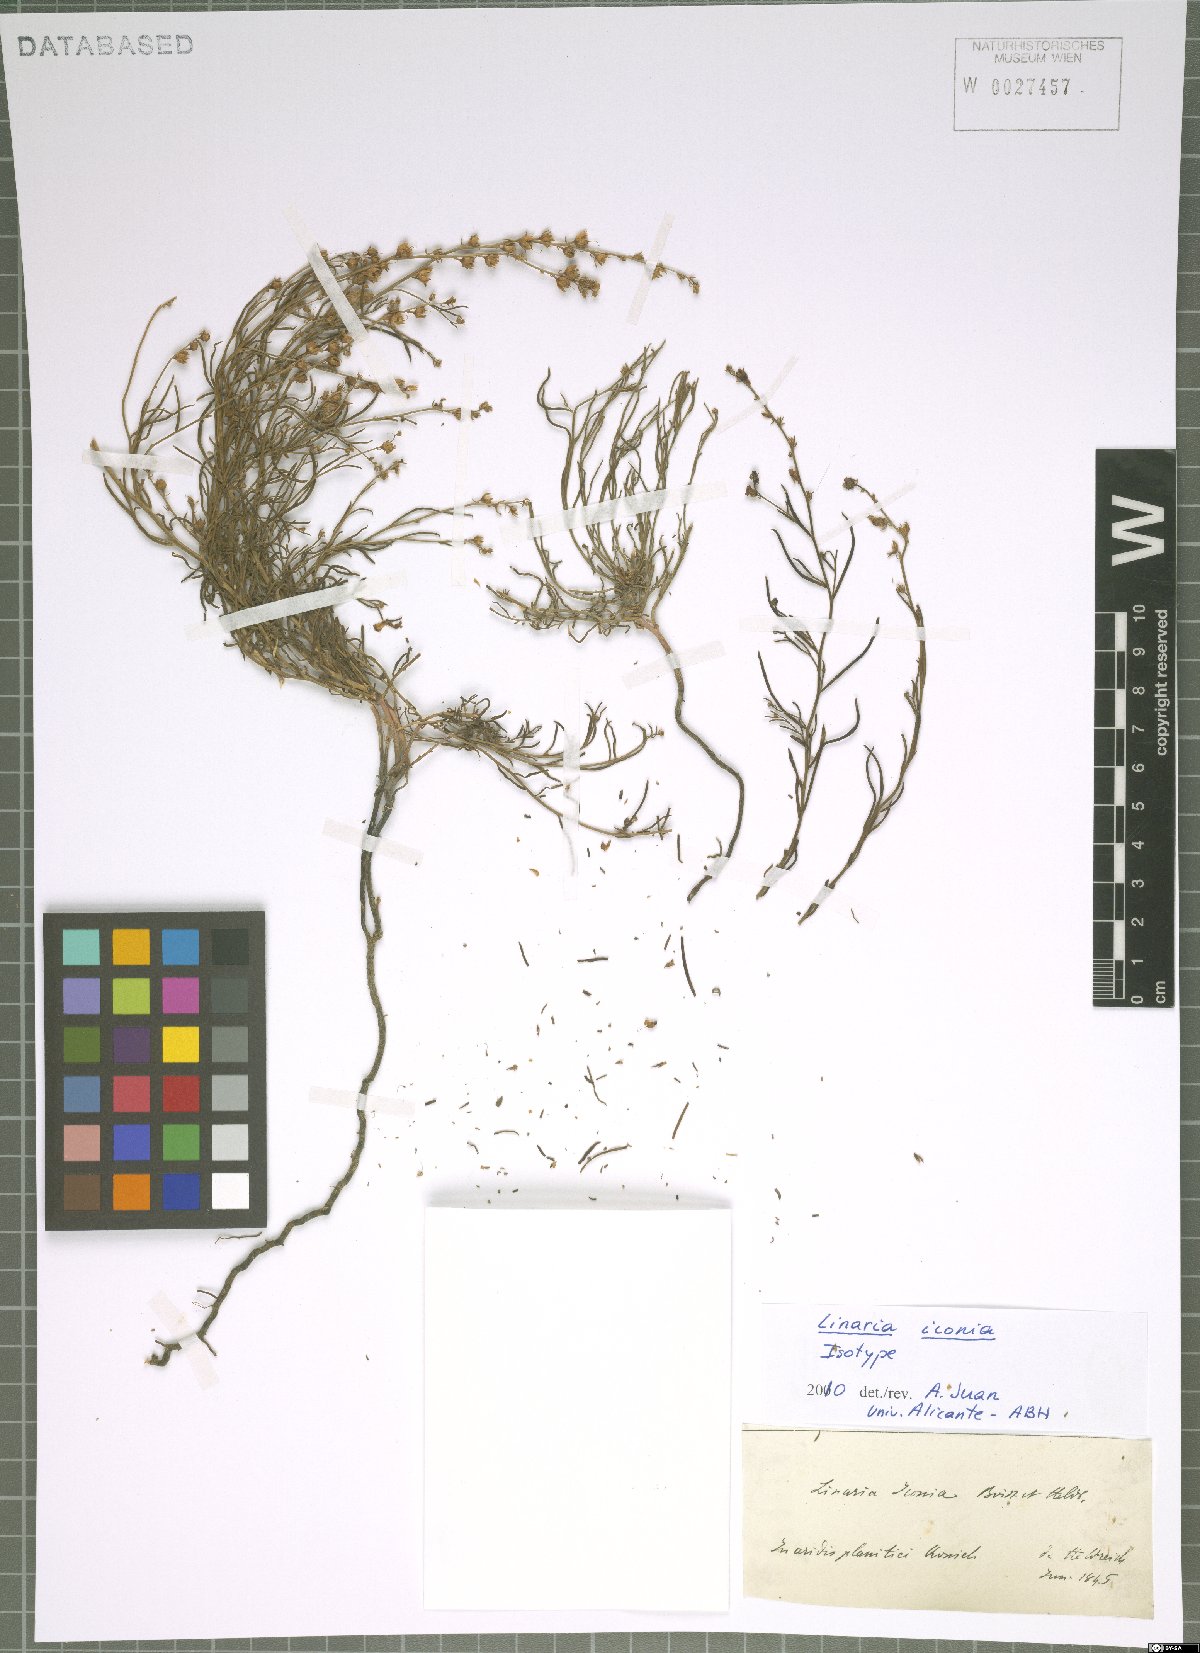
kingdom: Plantae
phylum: Tracheophyta
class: Magnoliopsida
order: Lamiales
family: Plantaginaceae
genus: Linaria
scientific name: Linaria iconia
